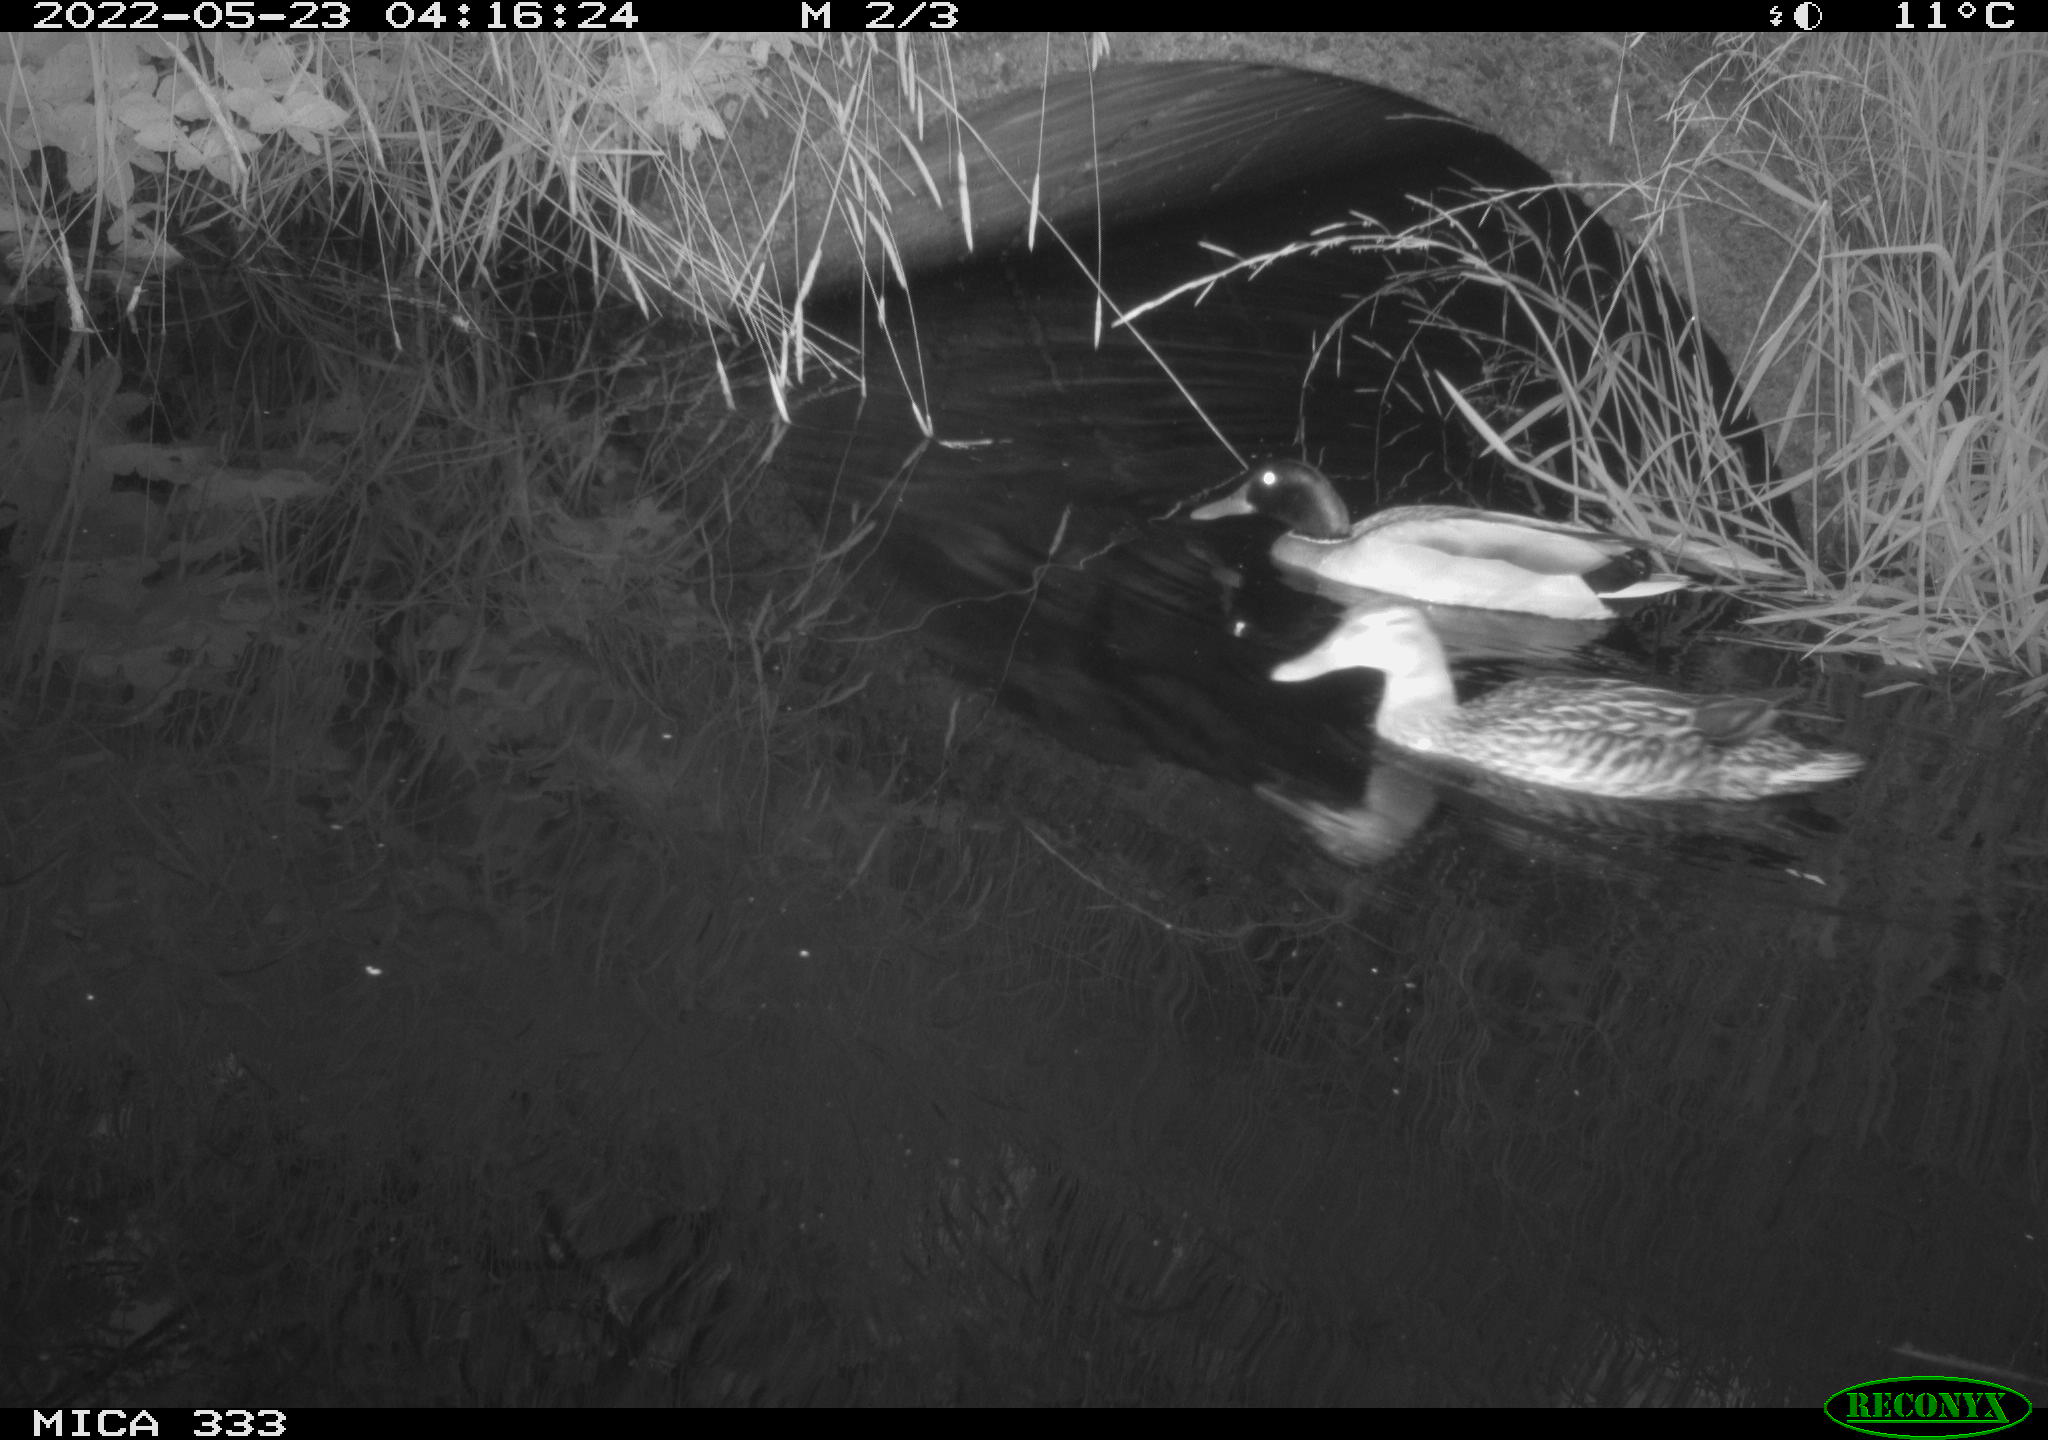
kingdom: Animalia
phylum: Chordata
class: Aves
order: Anseriformes
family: Anatidae
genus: Anas
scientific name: Anas platyrhynchos
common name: Mallard
